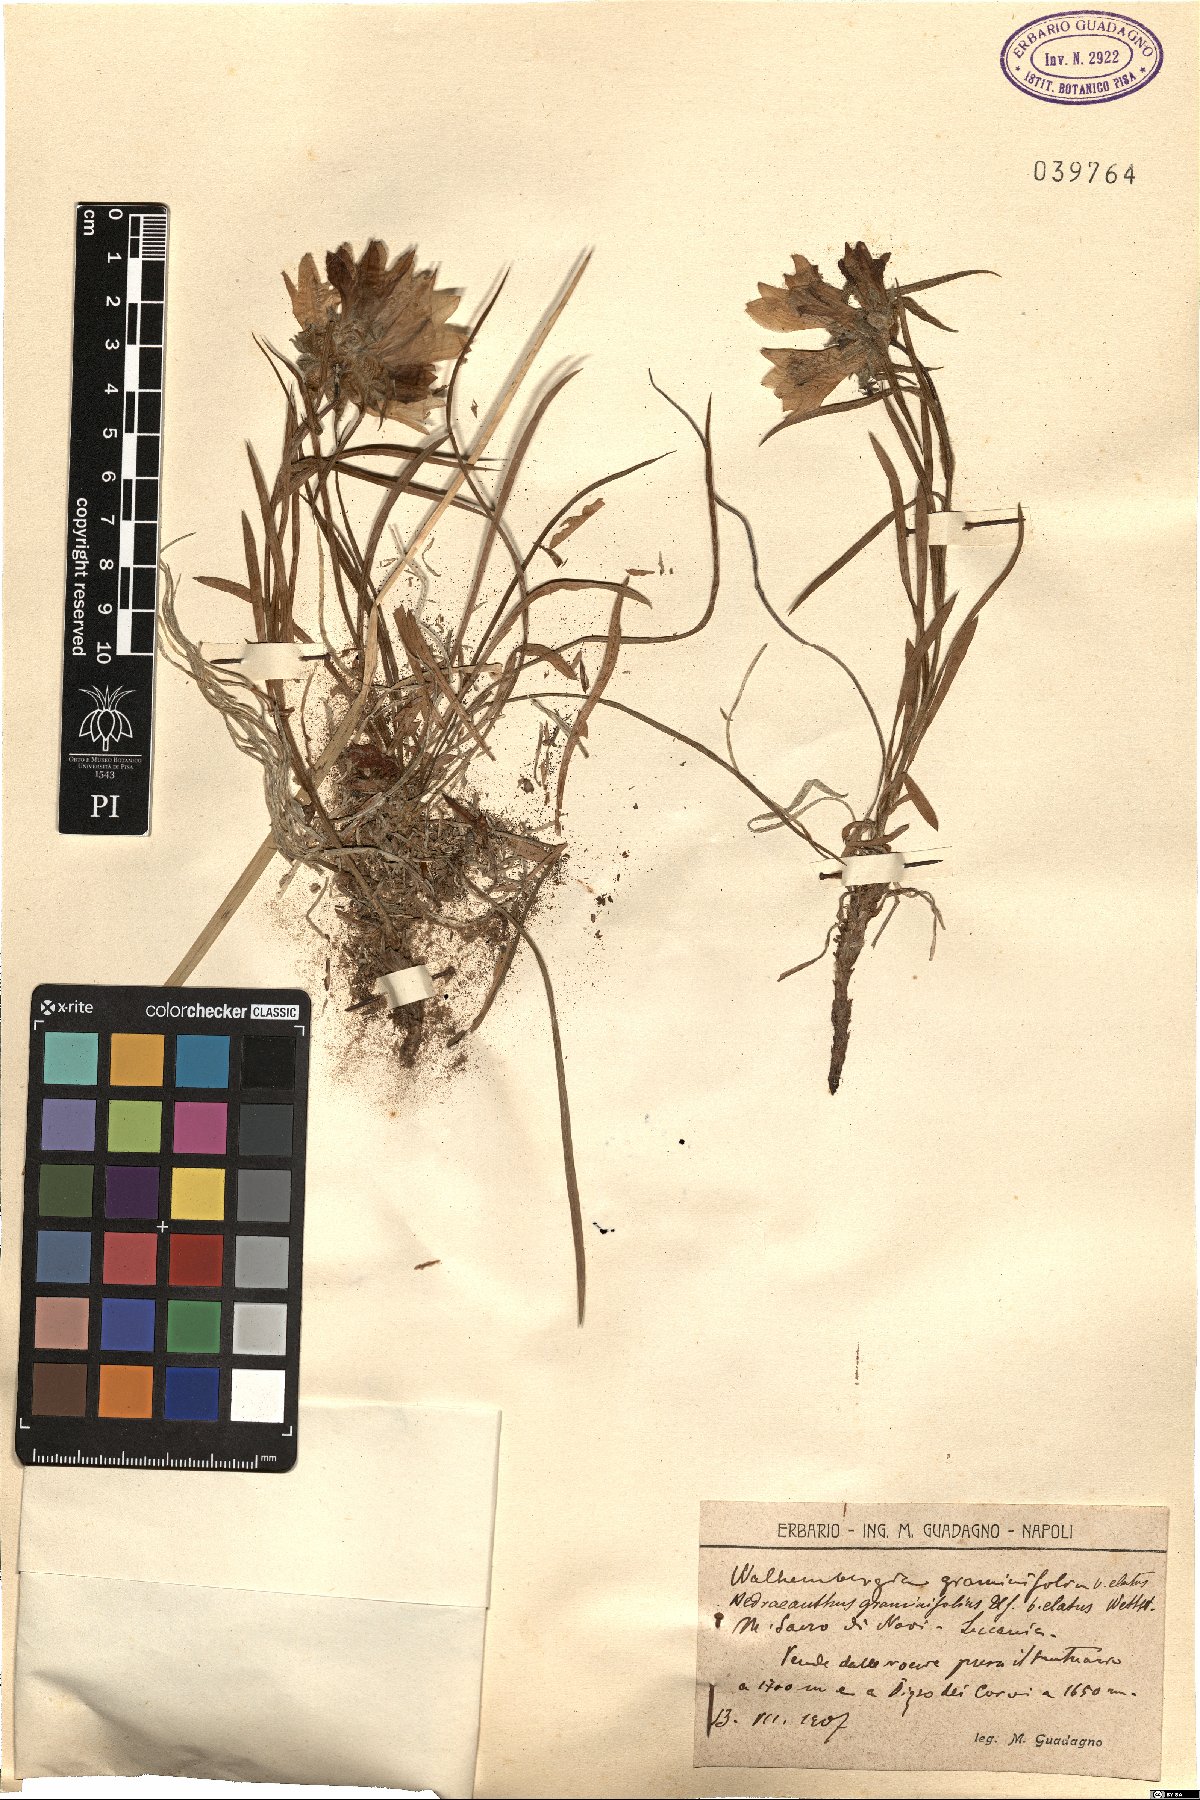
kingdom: Plantae
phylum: Tracheophyta
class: Magnoliopsida
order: Asterales
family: Campanulaceae
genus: Edraianthus
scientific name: Edraianthus graminifolius
